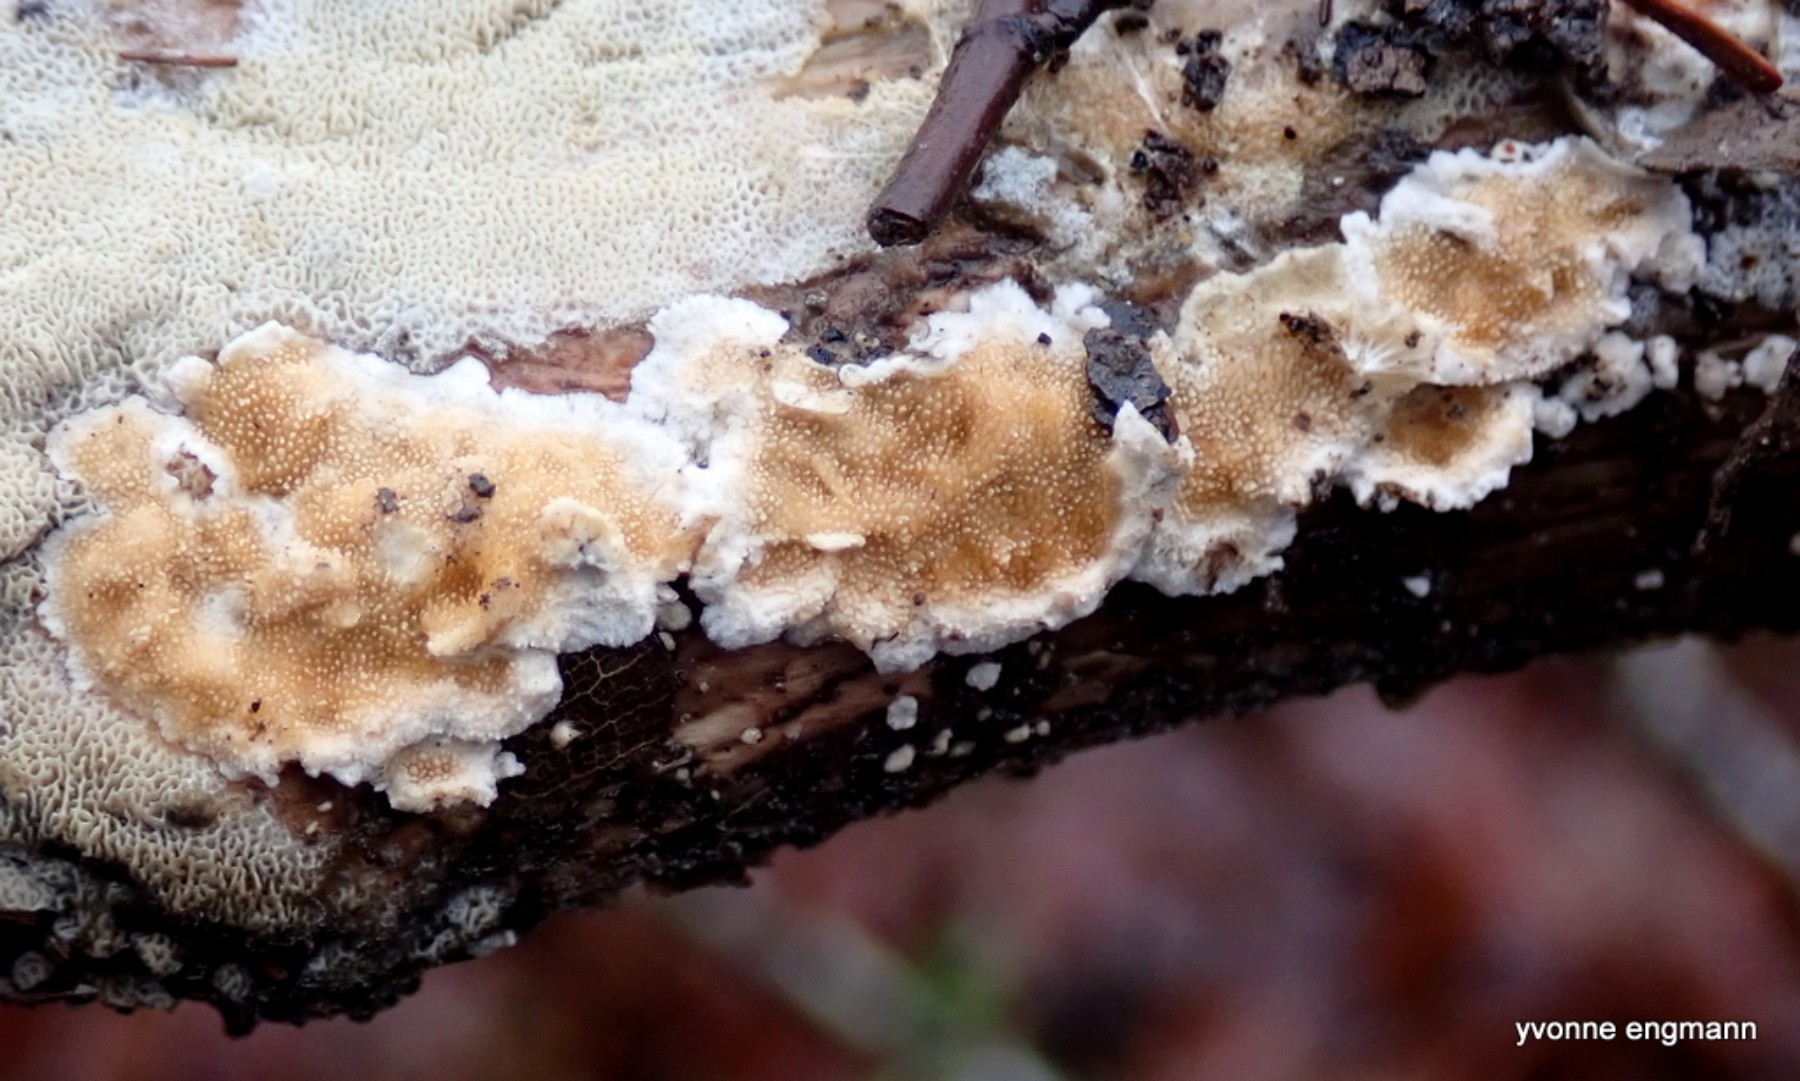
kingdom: Fungi
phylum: Basidiomycota
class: Agaricomycetes
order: Polyporales
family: Steccherinaceae
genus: Steccherinum
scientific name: Steccherinum ochraceum
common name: almindelig skønpig
